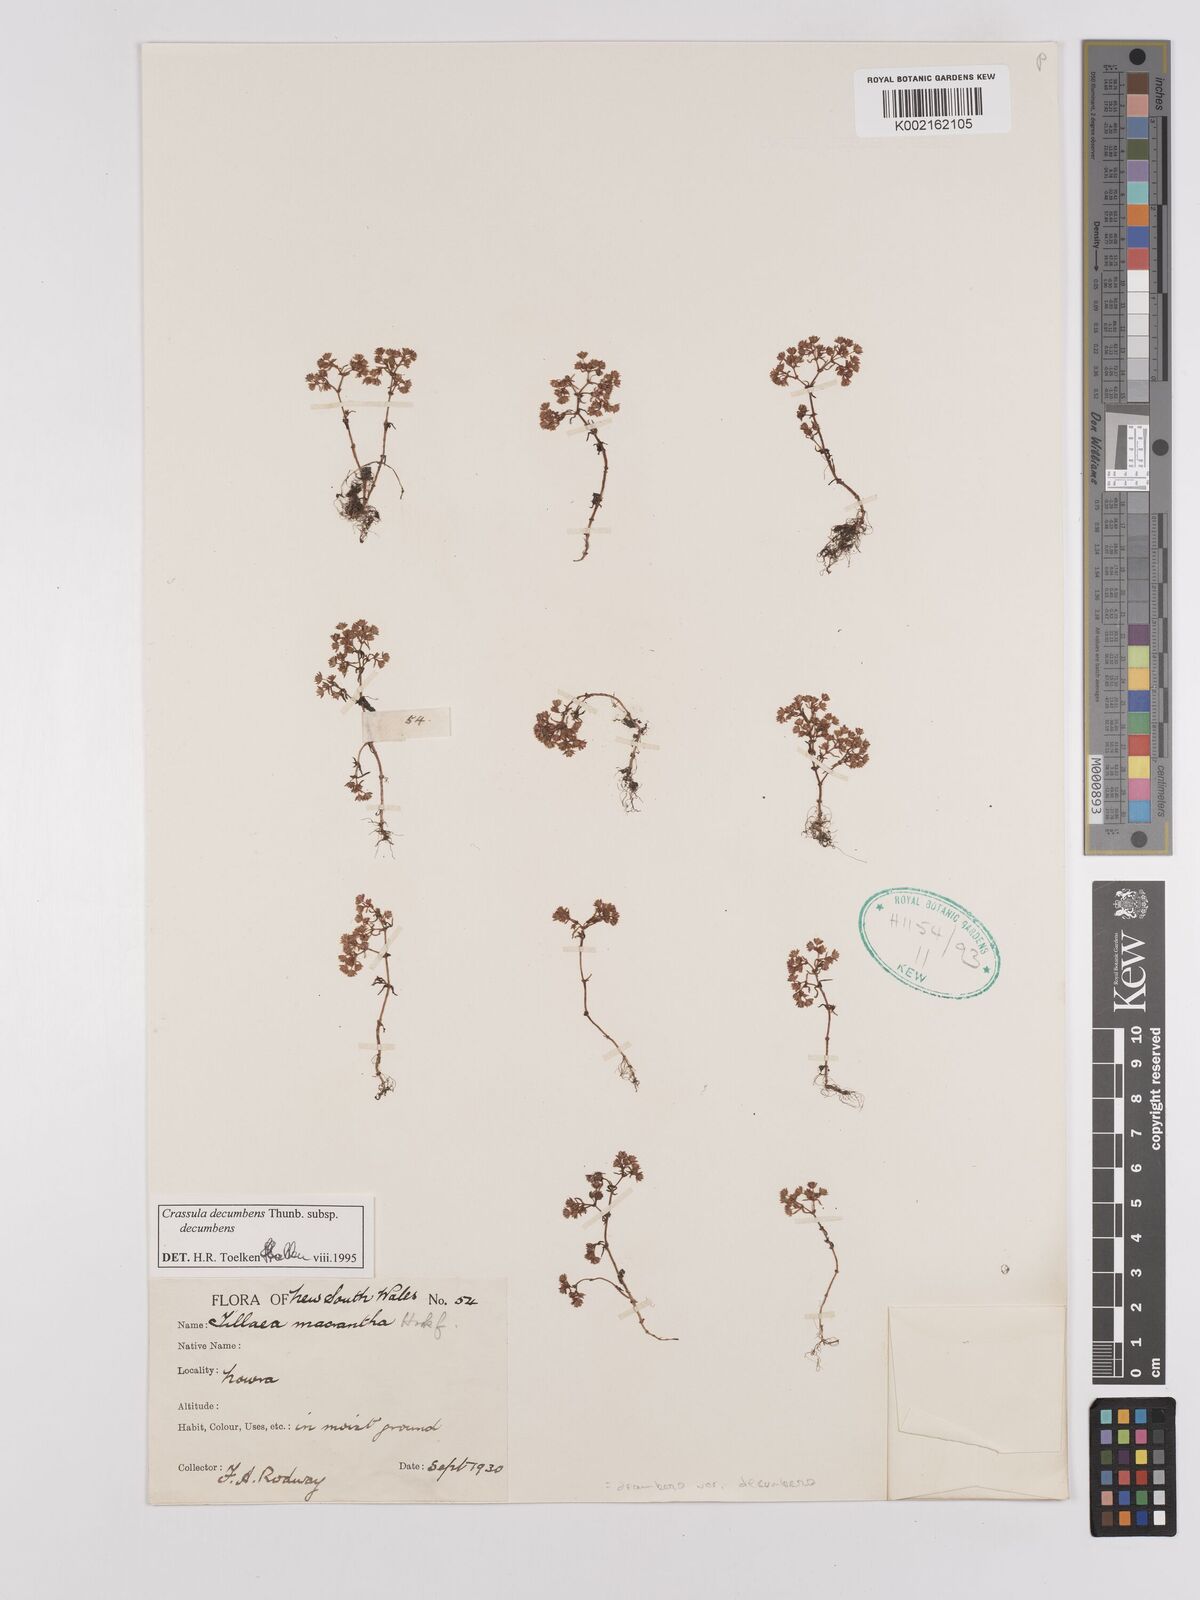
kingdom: Plantae
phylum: Tracheophyta
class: Magnoliopsida
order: Saxifragales
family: Crassulaceae
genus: Crassula
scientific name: Crassula decumbens
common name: Scilly pigmyweed
